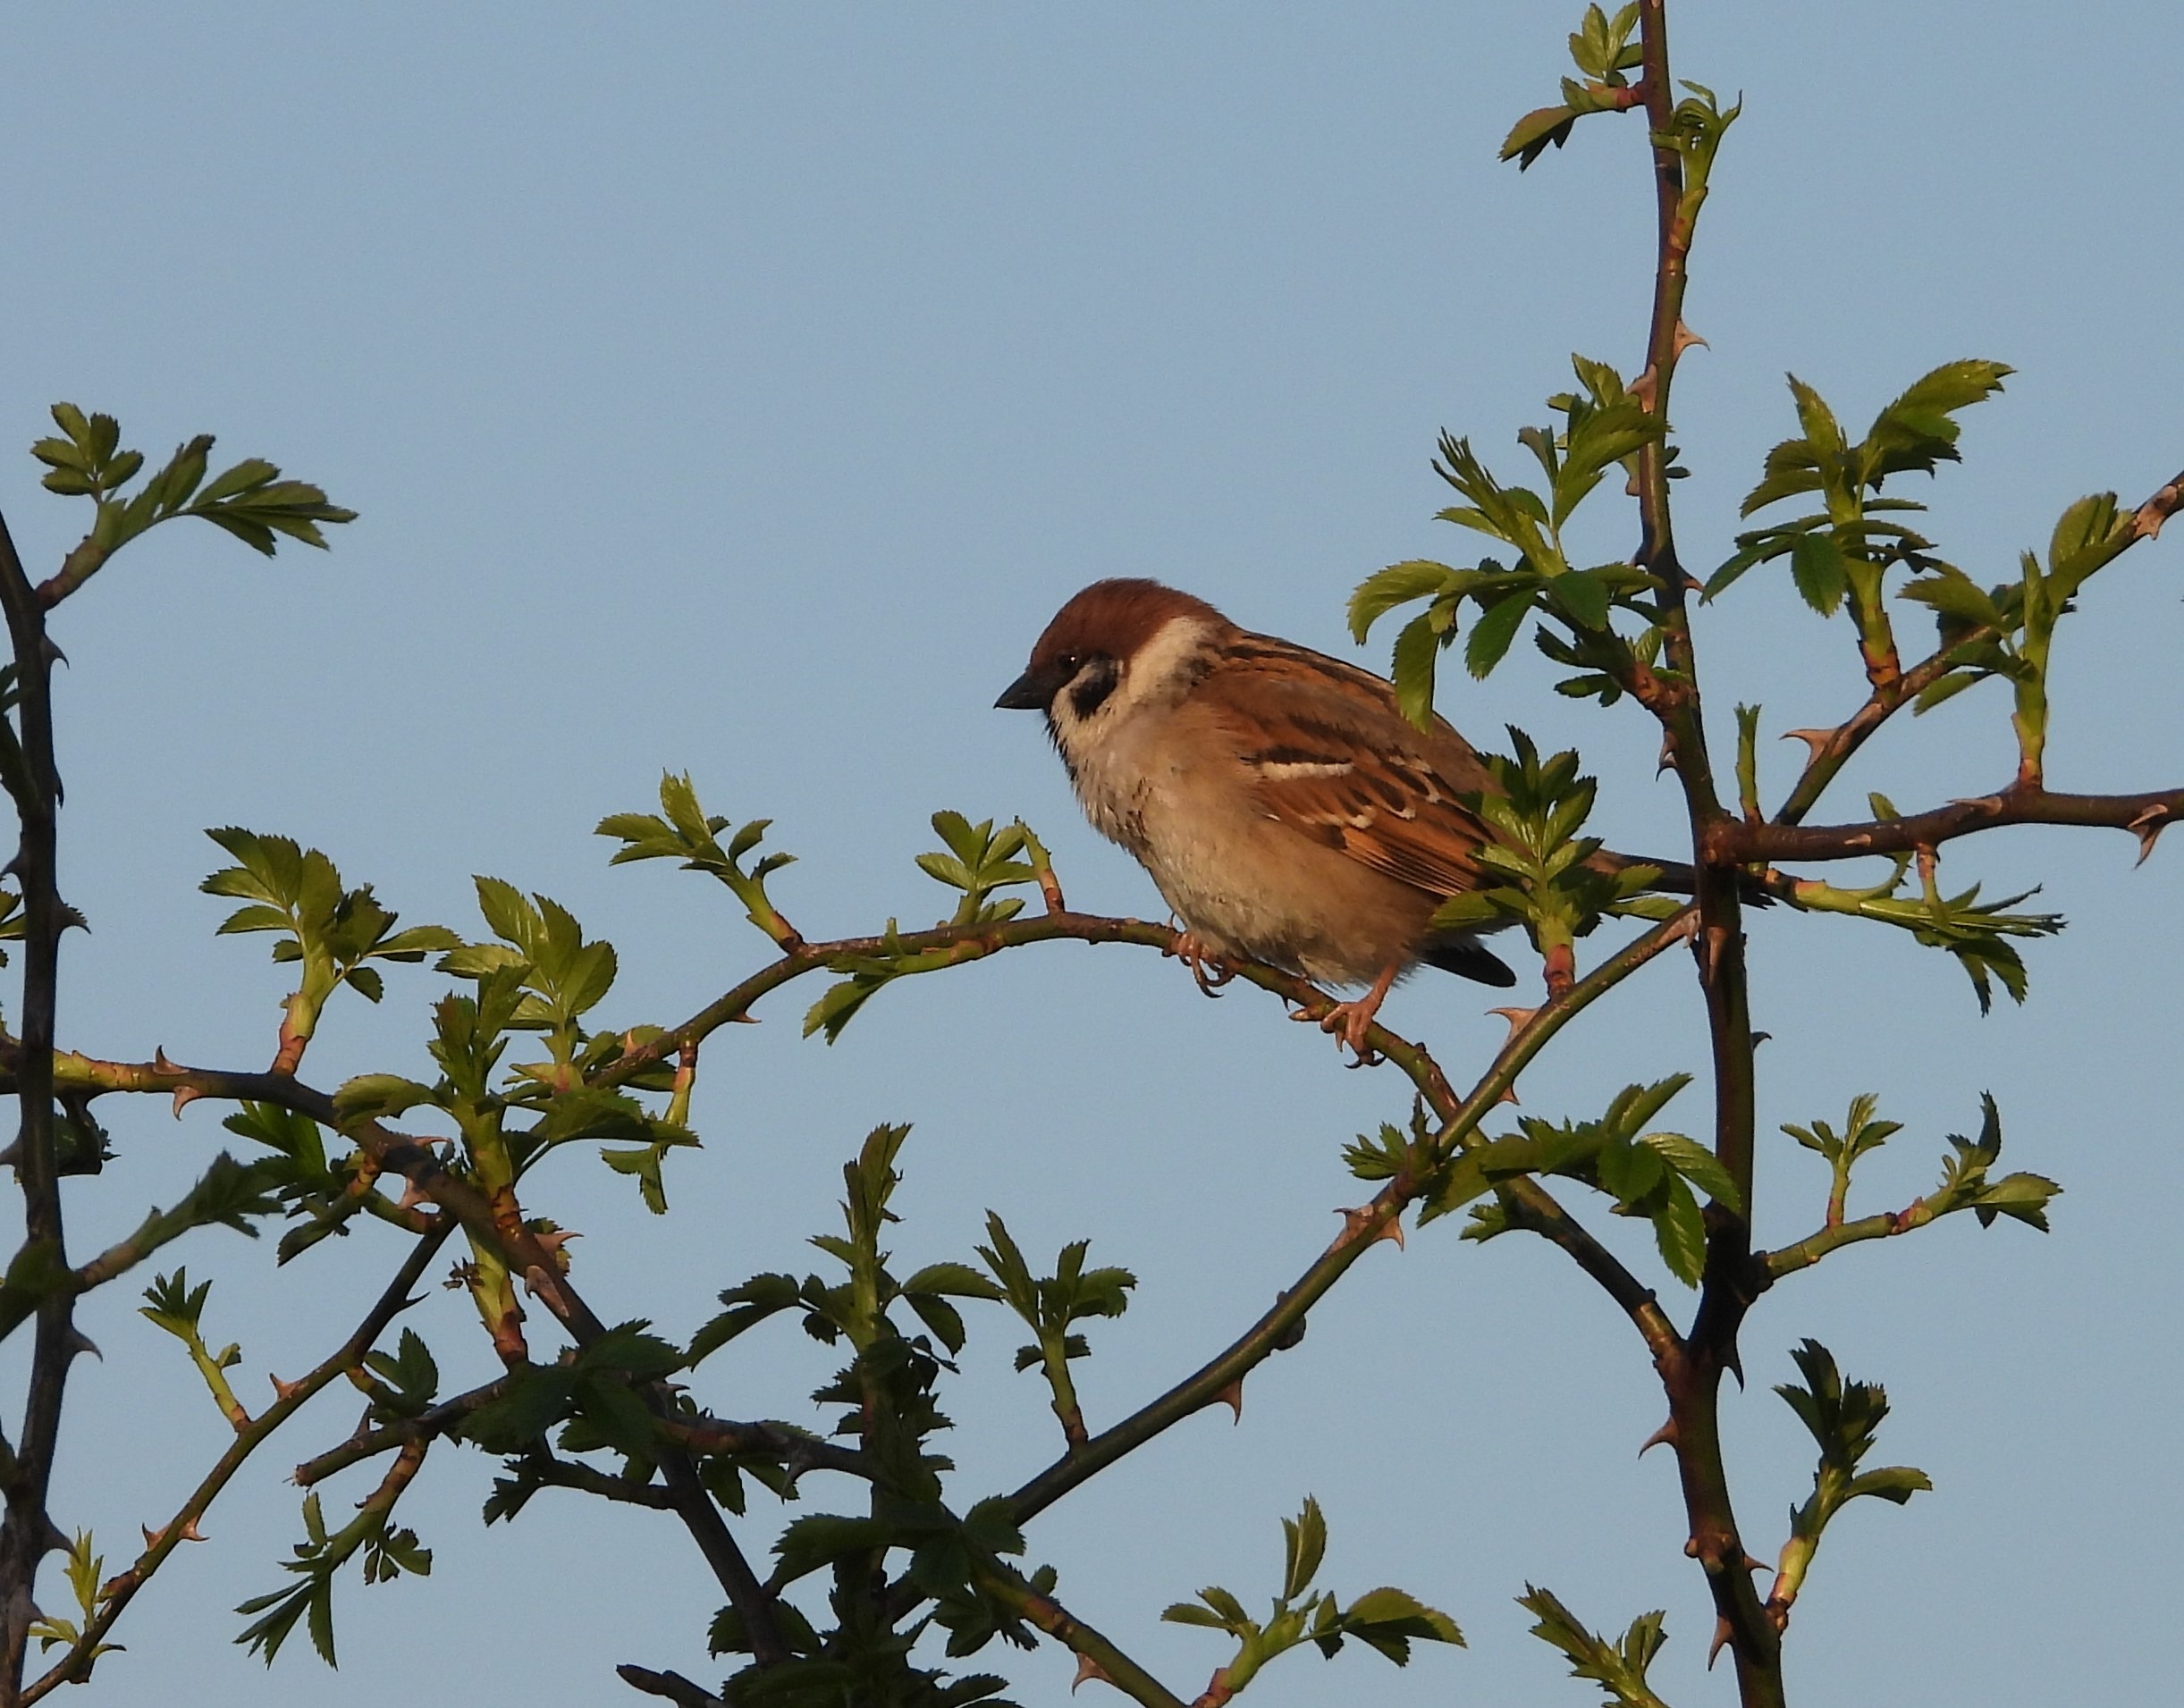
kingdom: Animalia
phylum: Chordata
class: Aves
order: Passeriformes
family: Passeridae
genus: Passer
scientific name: Passer montanus
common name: Skovspurv
